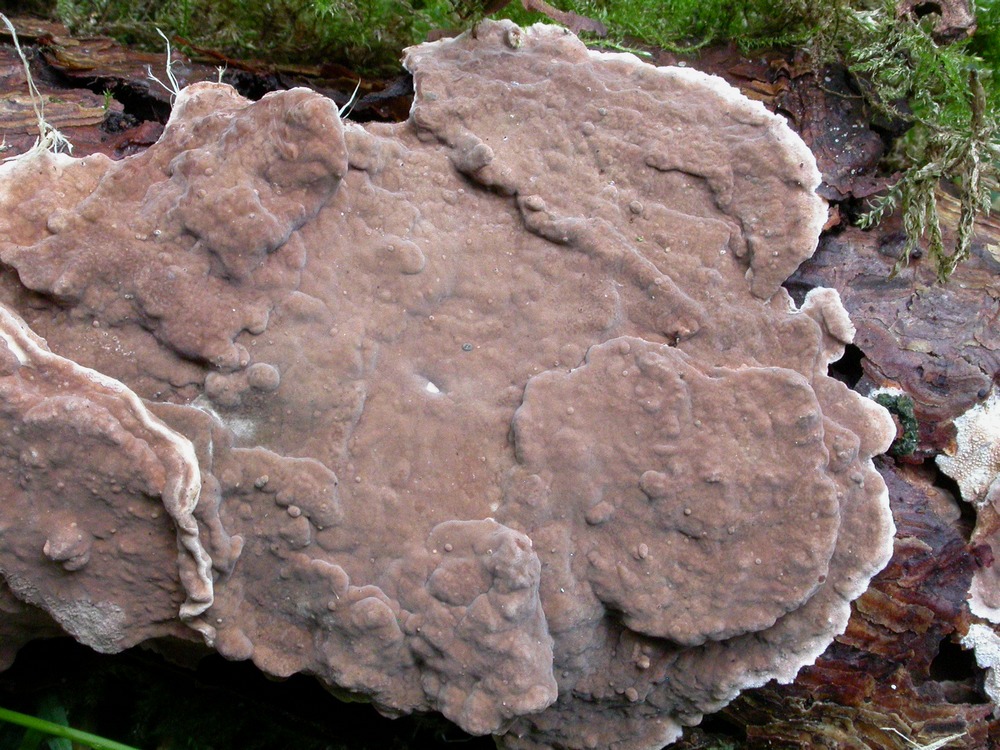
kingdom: Fungi
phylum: Basidiomycota
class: Agaricomycetes
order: Russulales
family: Echinodontiaceae
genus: Amylostereum
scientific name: Amylostereum chailletii
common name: gran-lædersvamp
